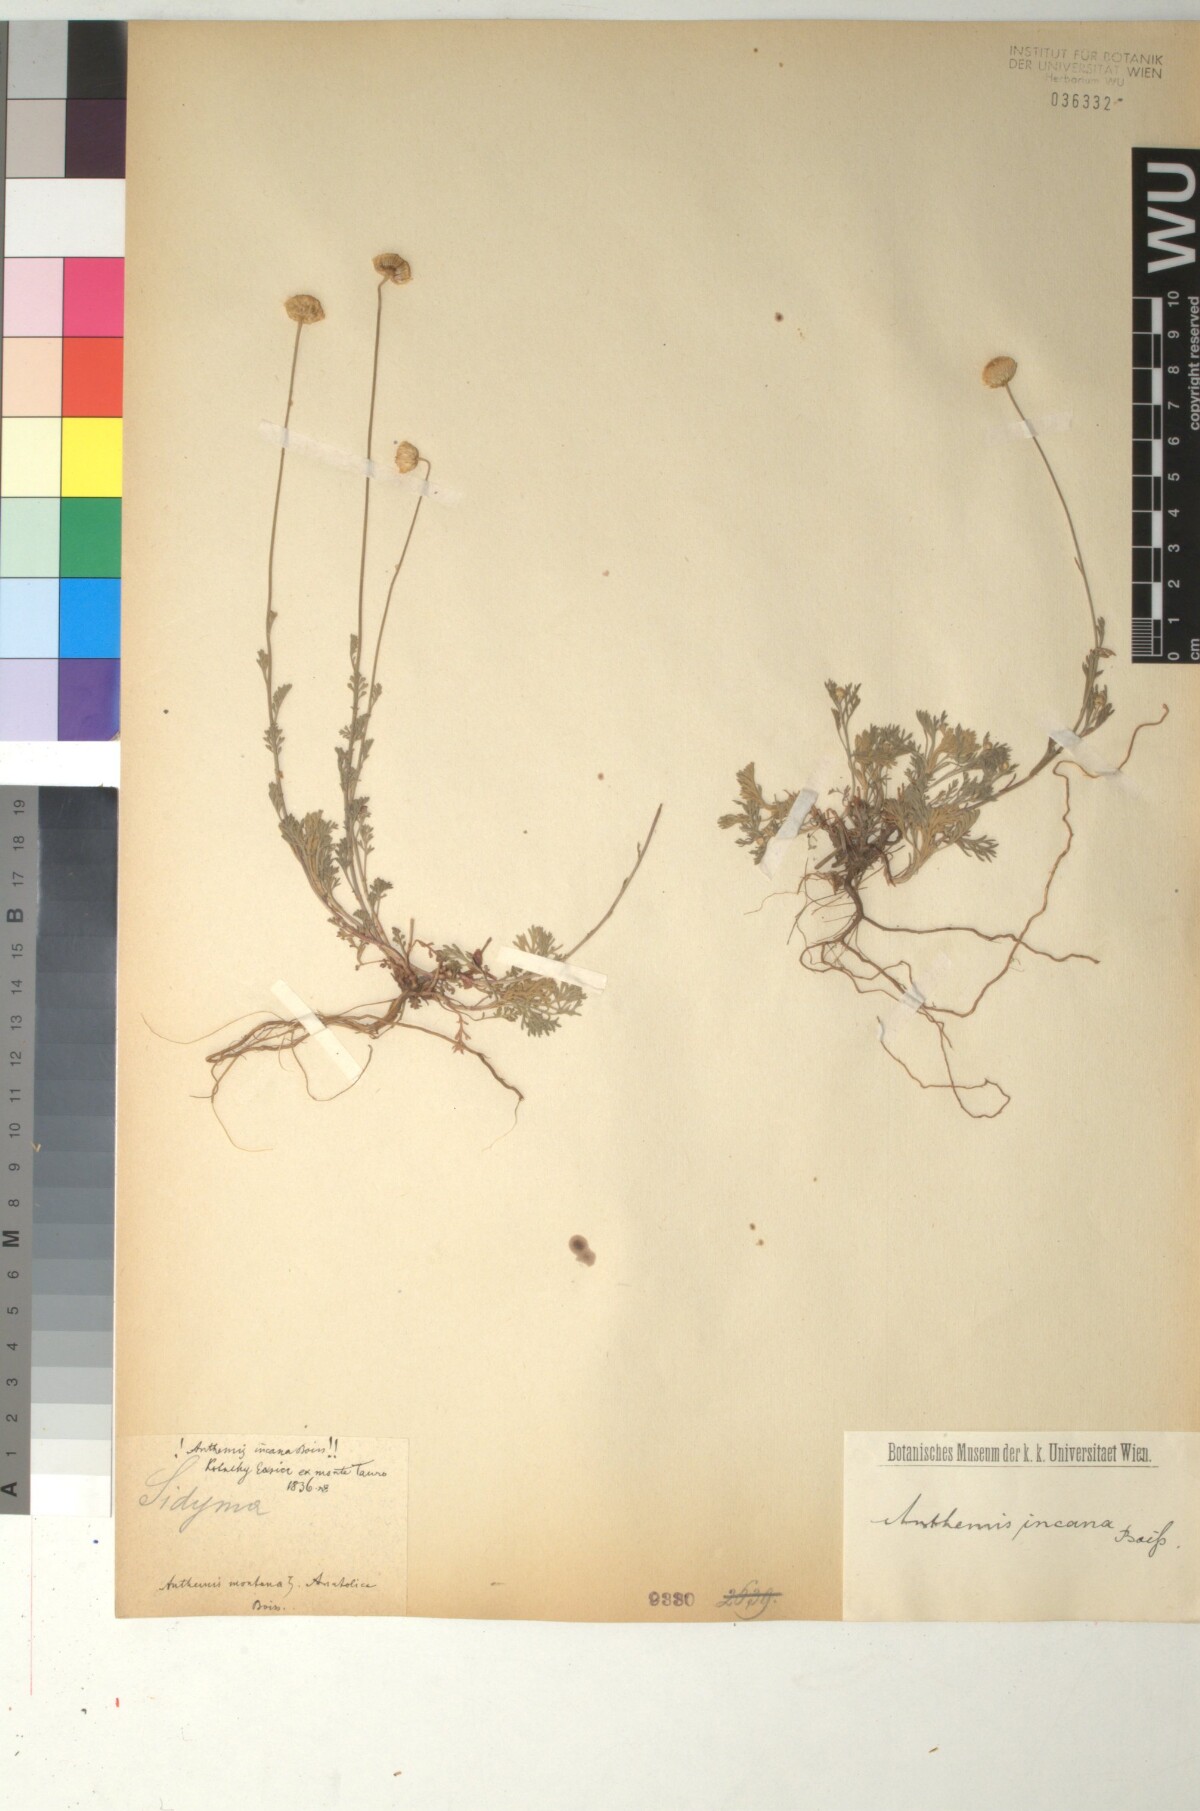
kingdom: Plantae
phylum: Tracheophyta
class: Magnoliopsida
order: Asterales
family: Asteraceae
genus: Anthemis
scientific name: Anthemis incisa
